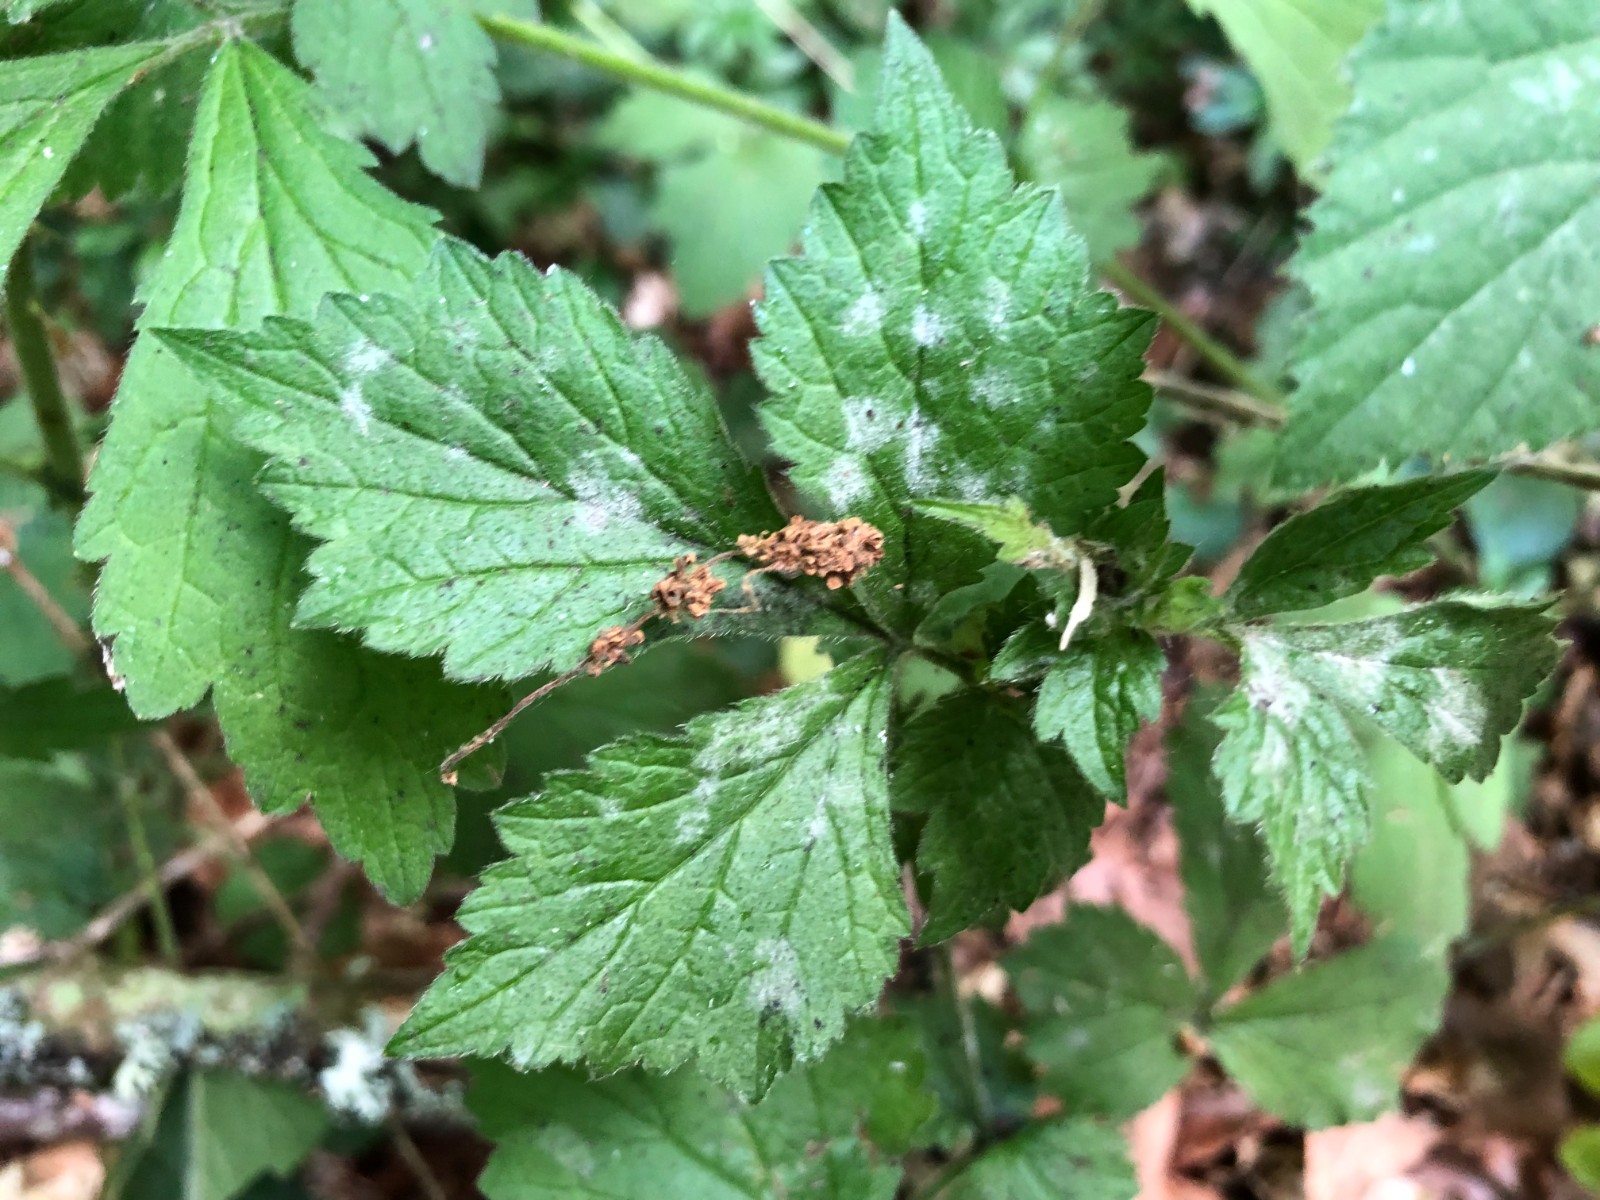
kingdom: Fungi
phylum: Ascomycota
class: Leotiomycetes
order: Helotiales
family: Erysiphaceae
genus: Podosphaera
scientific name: Podosphaera aphanis
